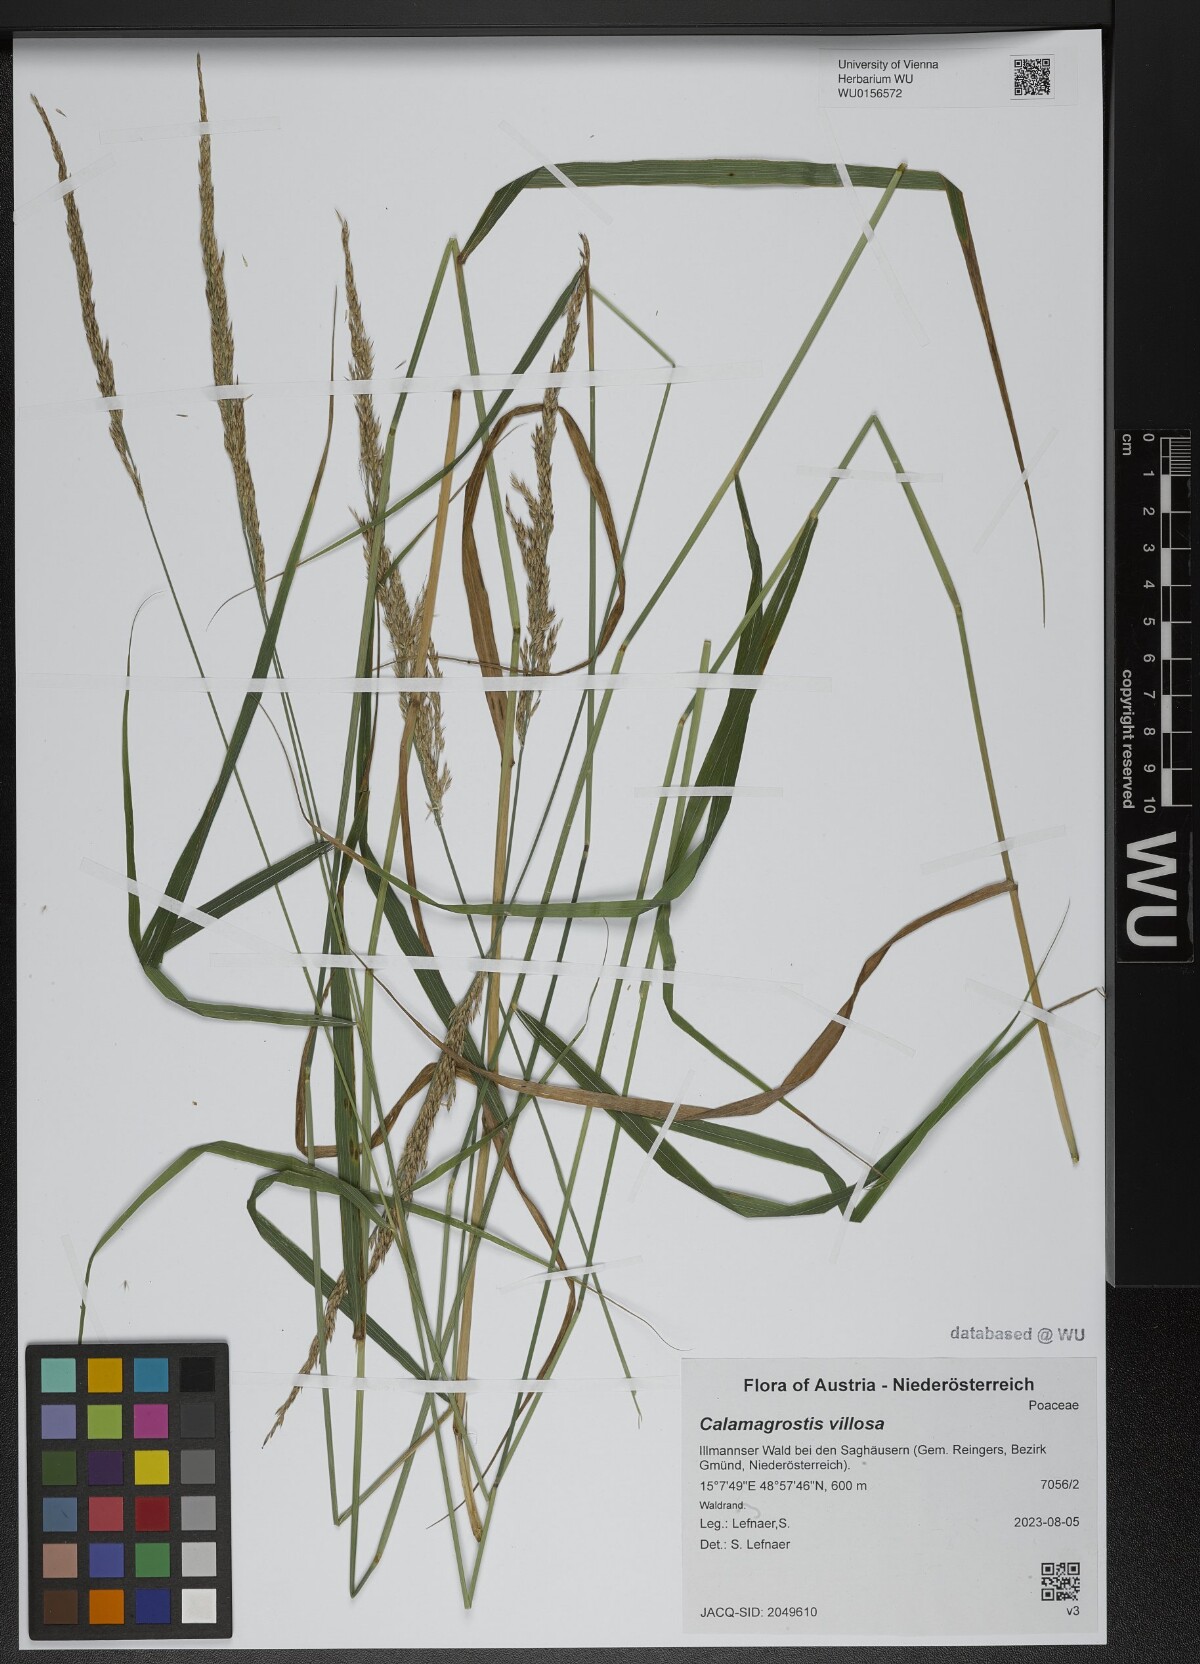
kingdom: Plantae
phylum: Tracheophyta
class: Liliopsida
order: Poales
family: Poaceae
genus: Calamagrostis
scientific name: Calamagrostis villosa
